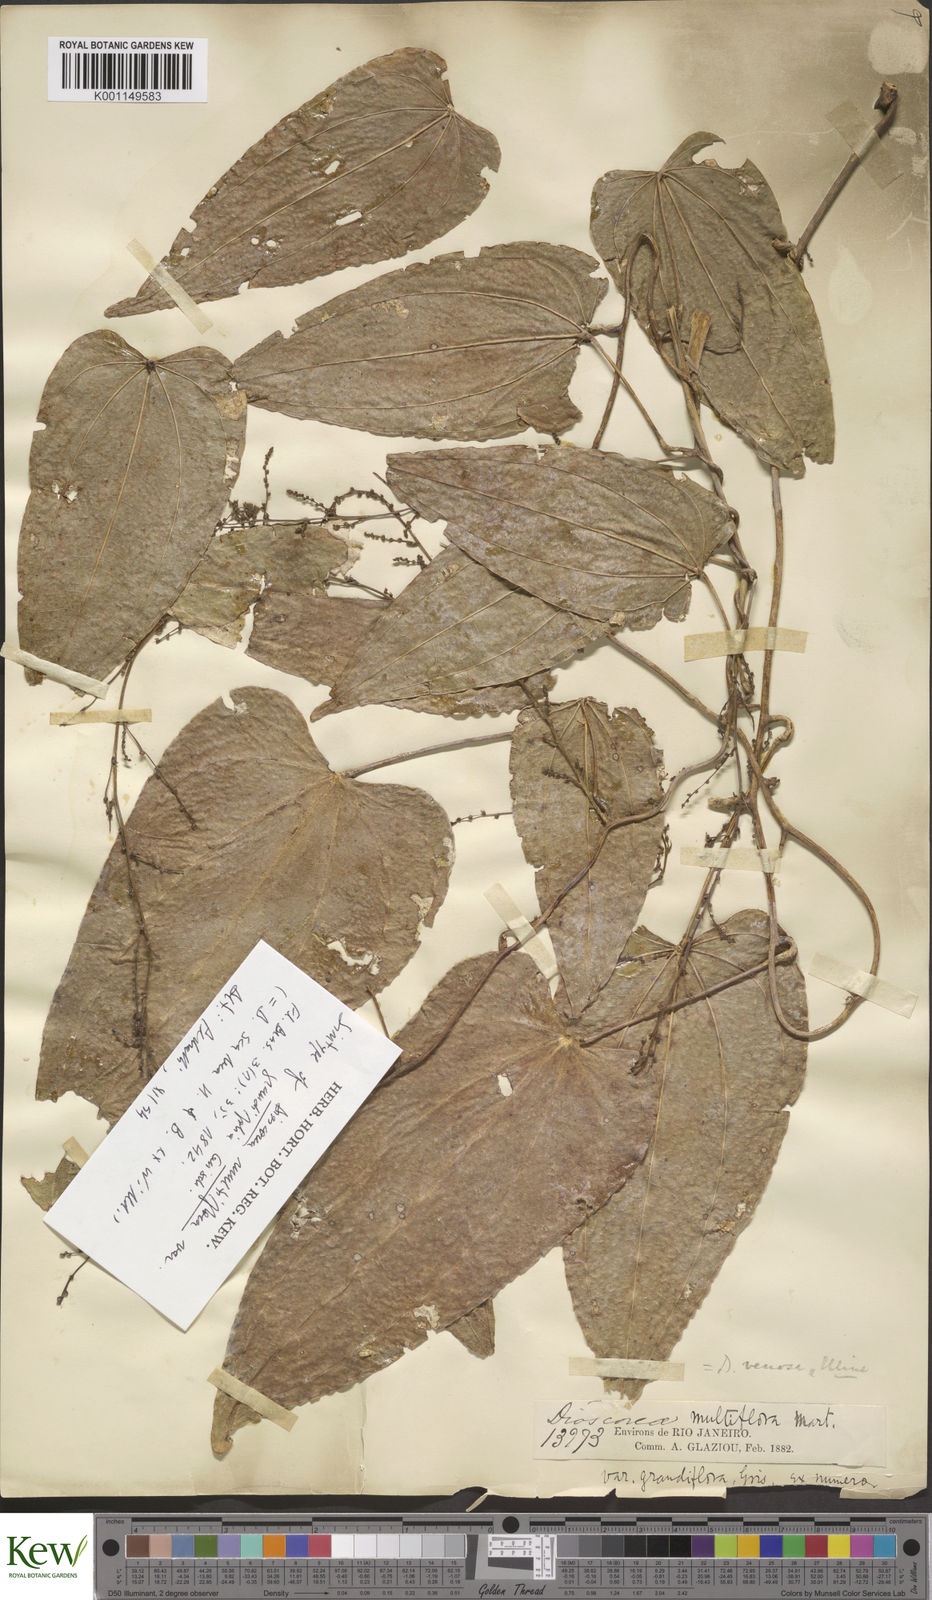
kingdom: Plantae
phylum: Tracheophyta
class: Liliopsida
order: Dioscoreales
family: Dioscoreaceae
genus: Dioscorea
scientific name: Dioscorea fodinarum
